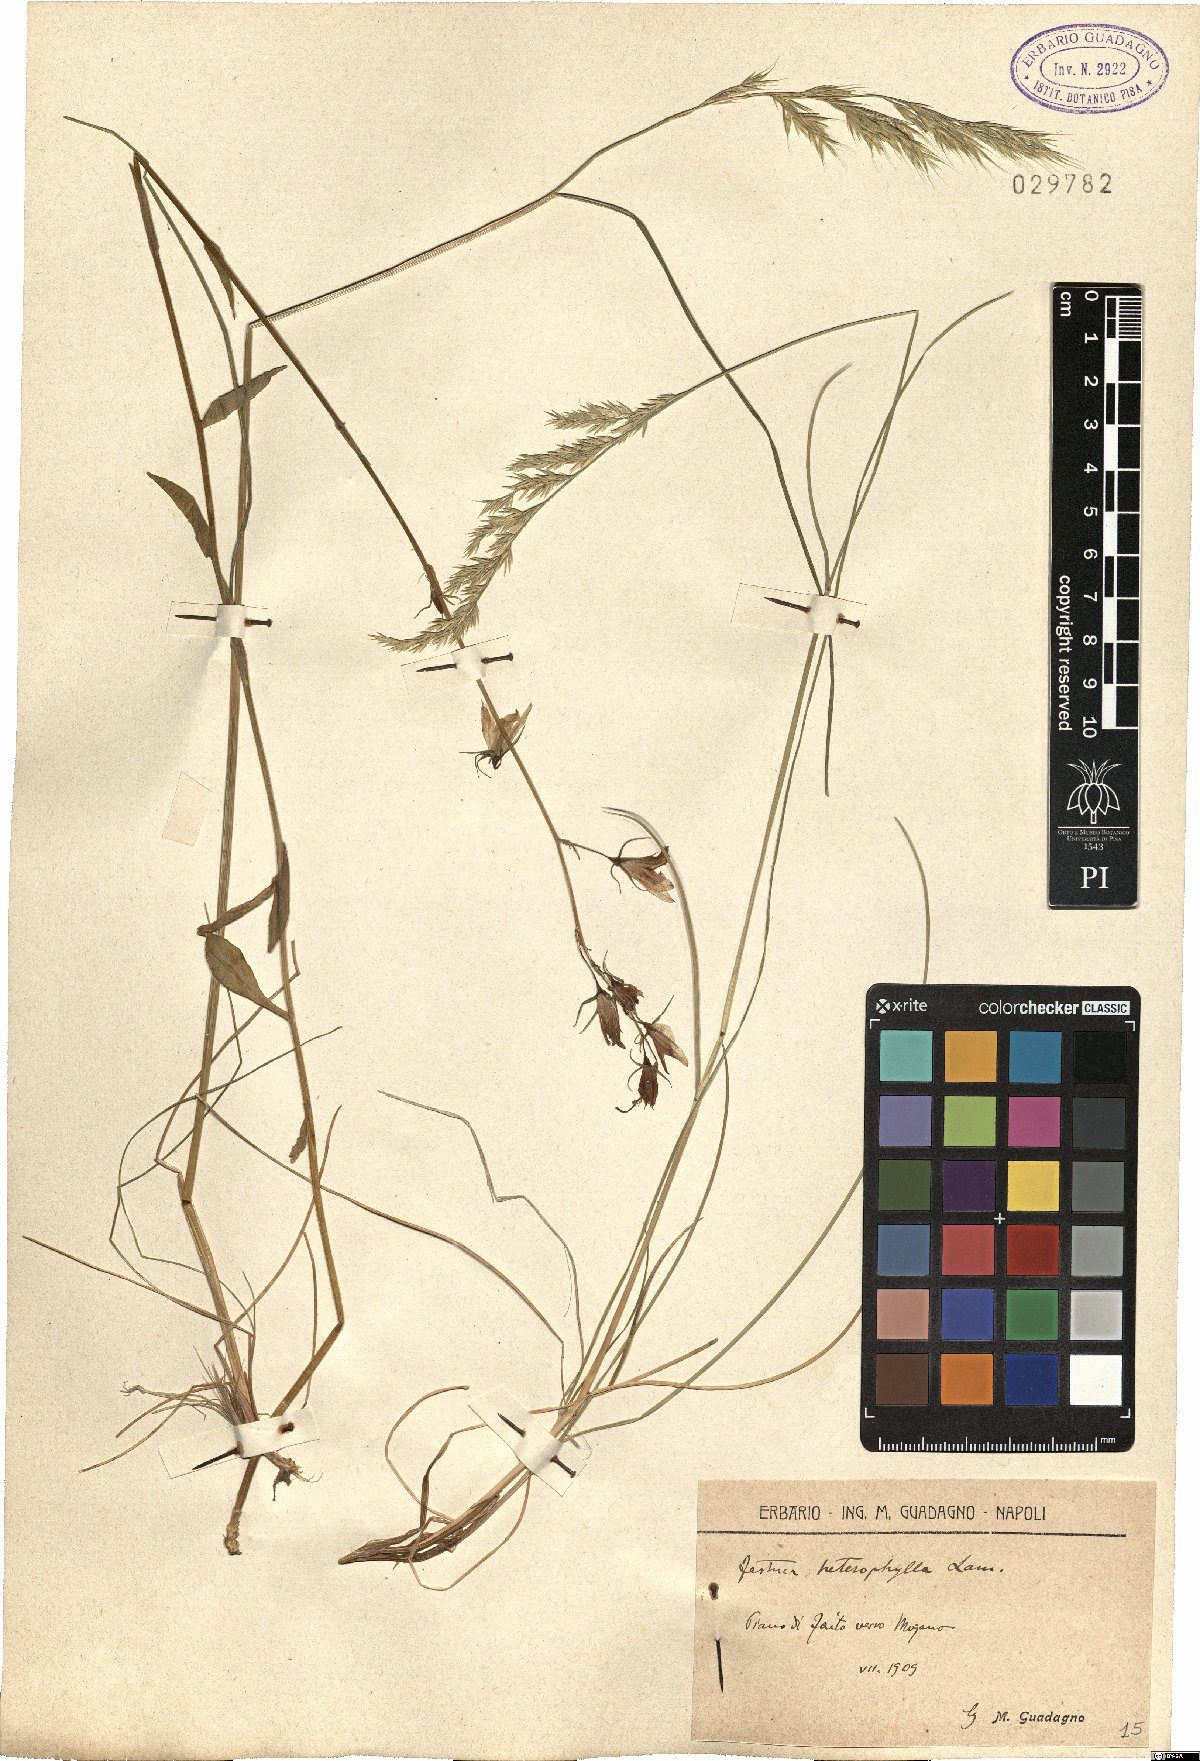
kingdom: Plantae
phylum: Tracheophyta
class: Liliopsida
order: Poales
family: Poaceae
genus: Festuca
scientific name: Festuca heterophylla
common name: Various-leaved fescue
